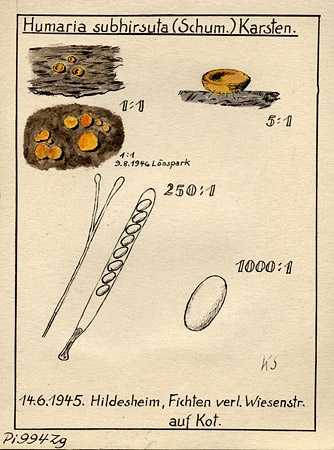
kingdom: Fungi
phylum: Ascomycota
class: Pezizomycetes
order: Pezizales
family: Pyronemataceae
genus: Cheilymenia
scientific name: Cheilymenia subhirsuta
